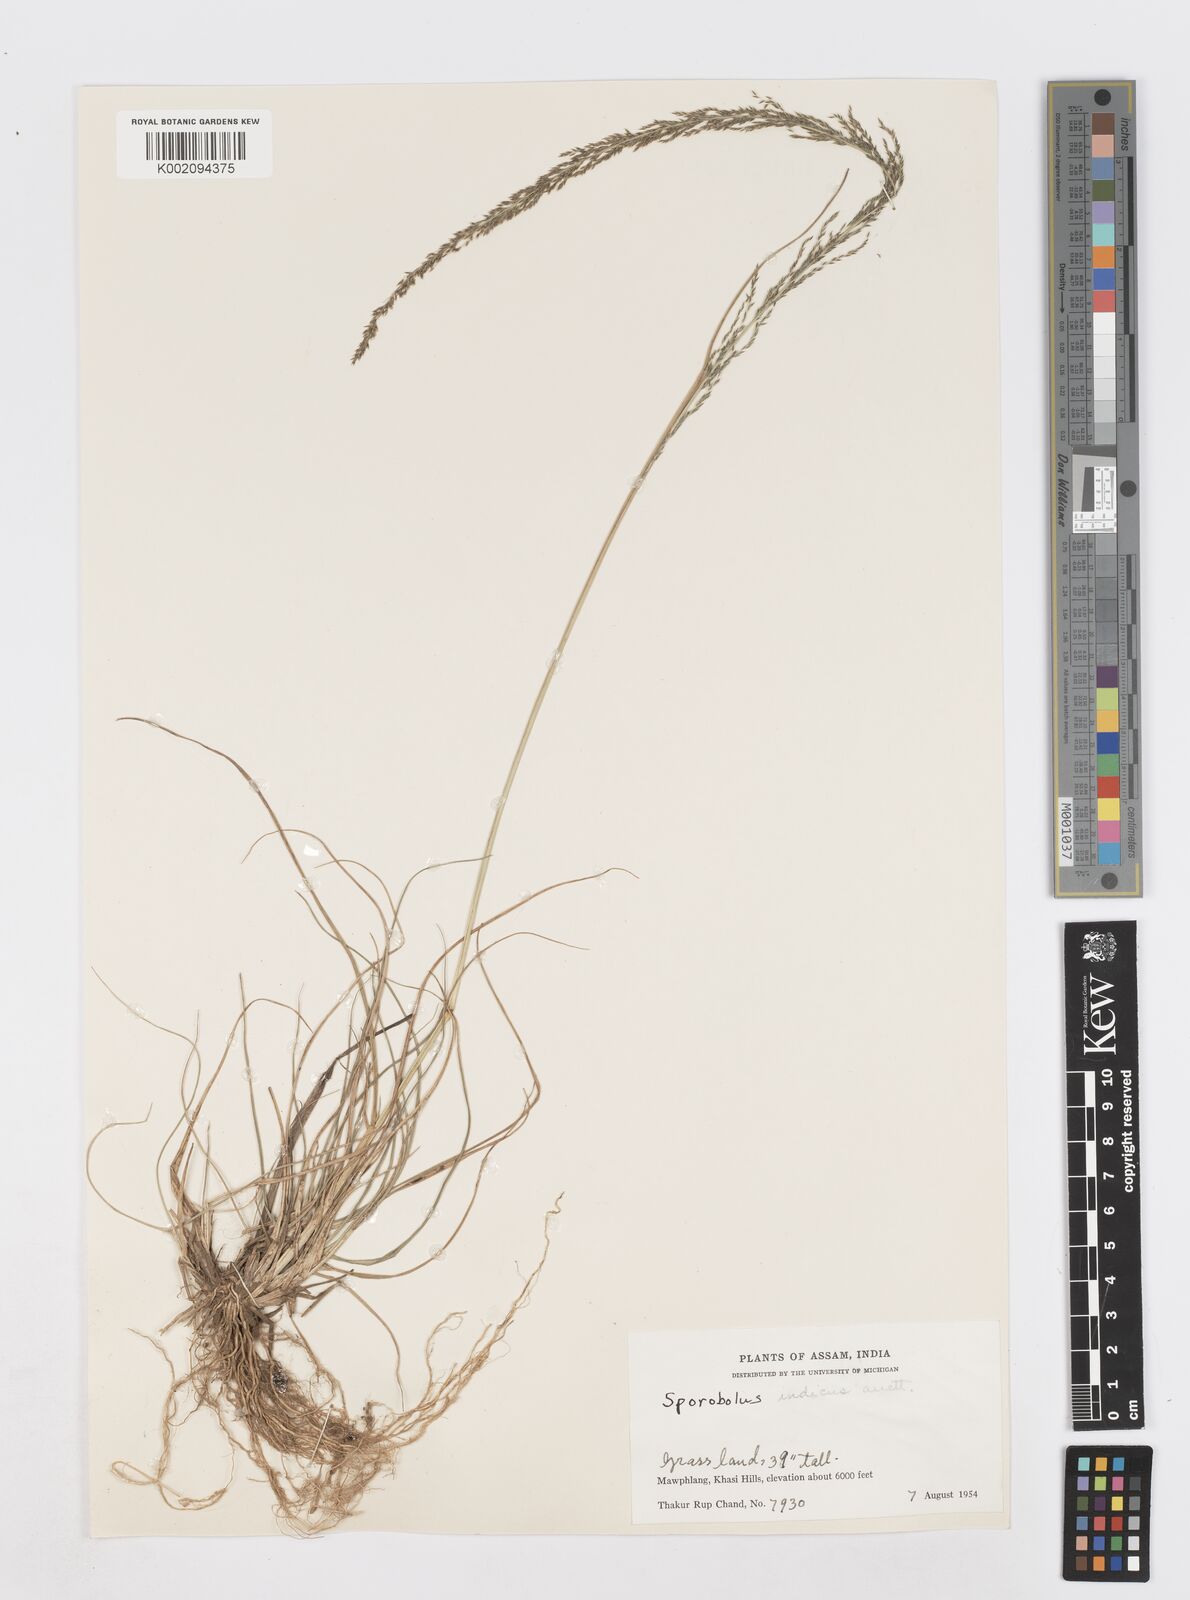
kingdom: Plantae
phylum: Tracheophyta
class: Liliopsida
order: Poales
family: Poaceae
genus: Sporobolus
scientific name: Sporobolus fertilis
